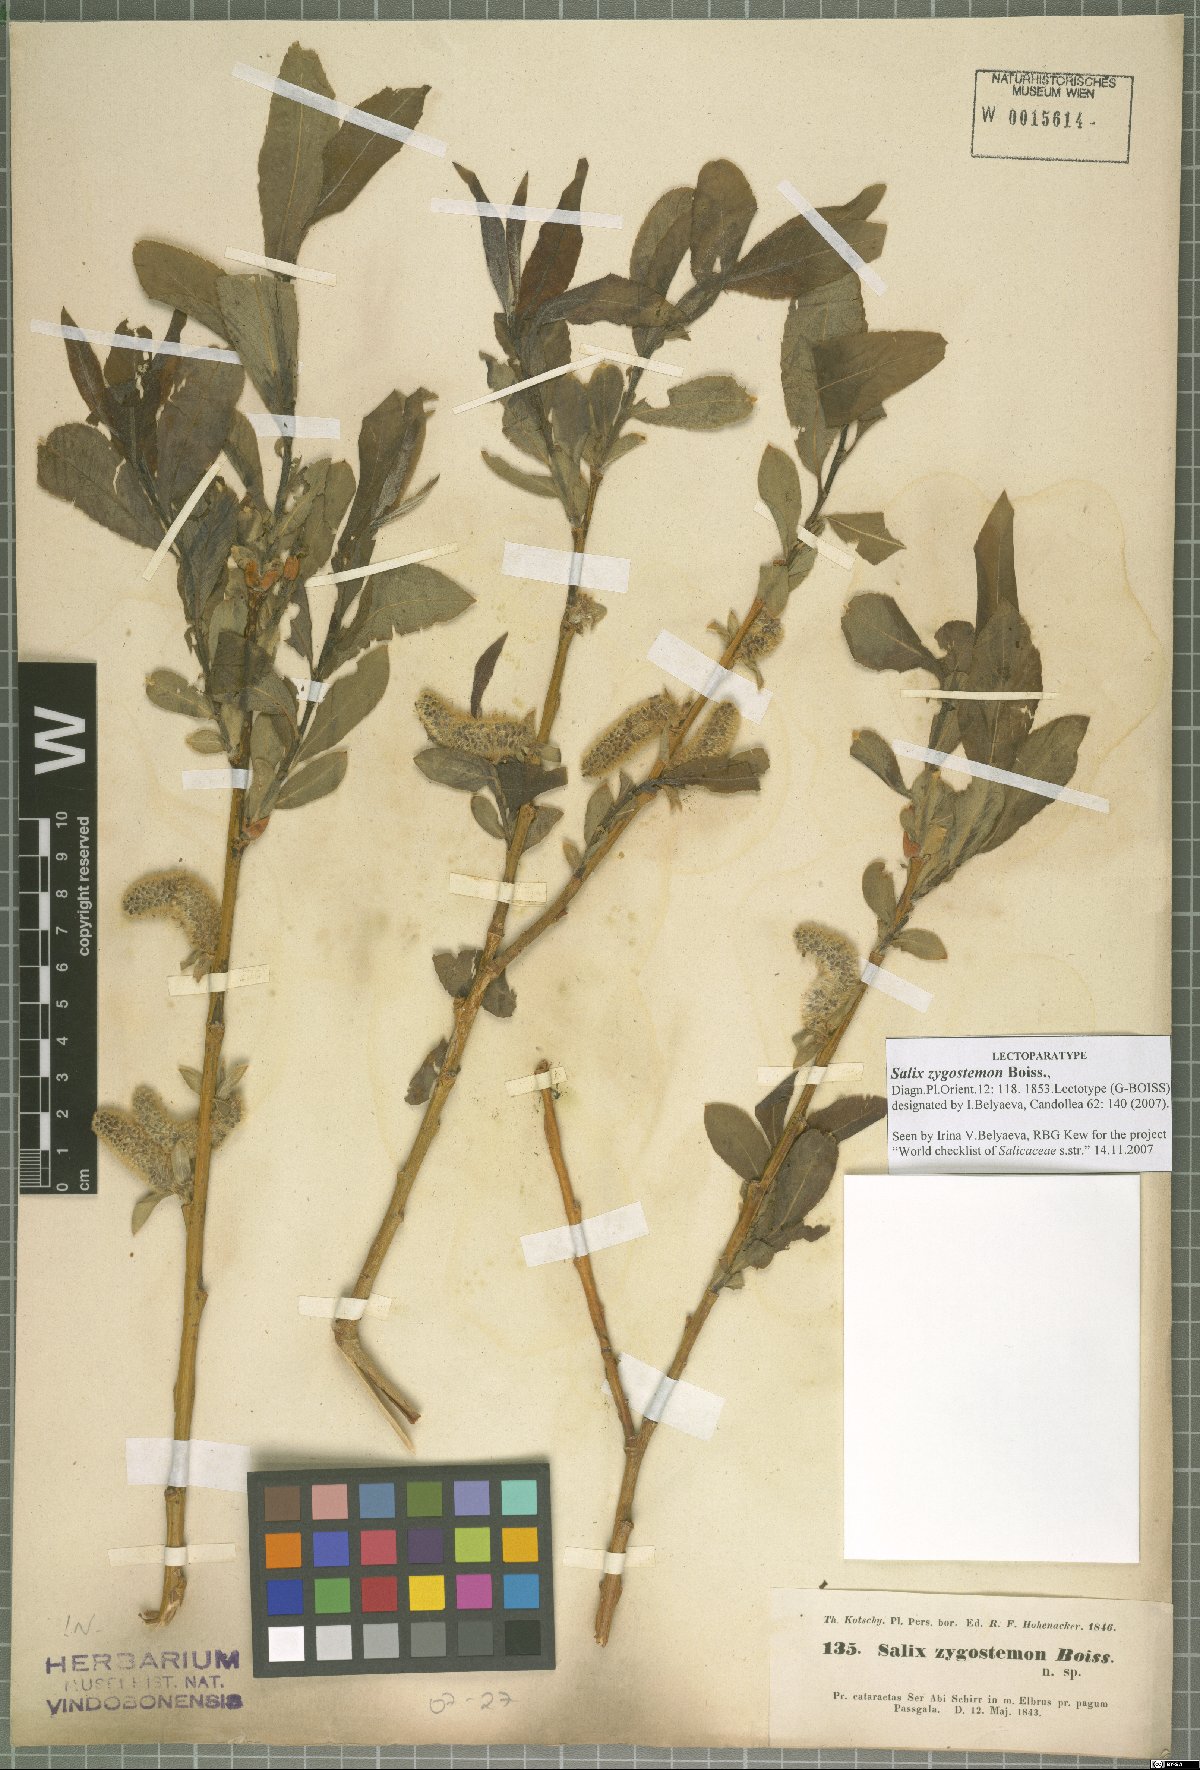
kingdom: Plantae
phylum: Tracheophyta
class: Magnoliopsida
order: Malpighiales
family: Salicaceae
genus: Salix
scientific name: Salix sericocarpa
